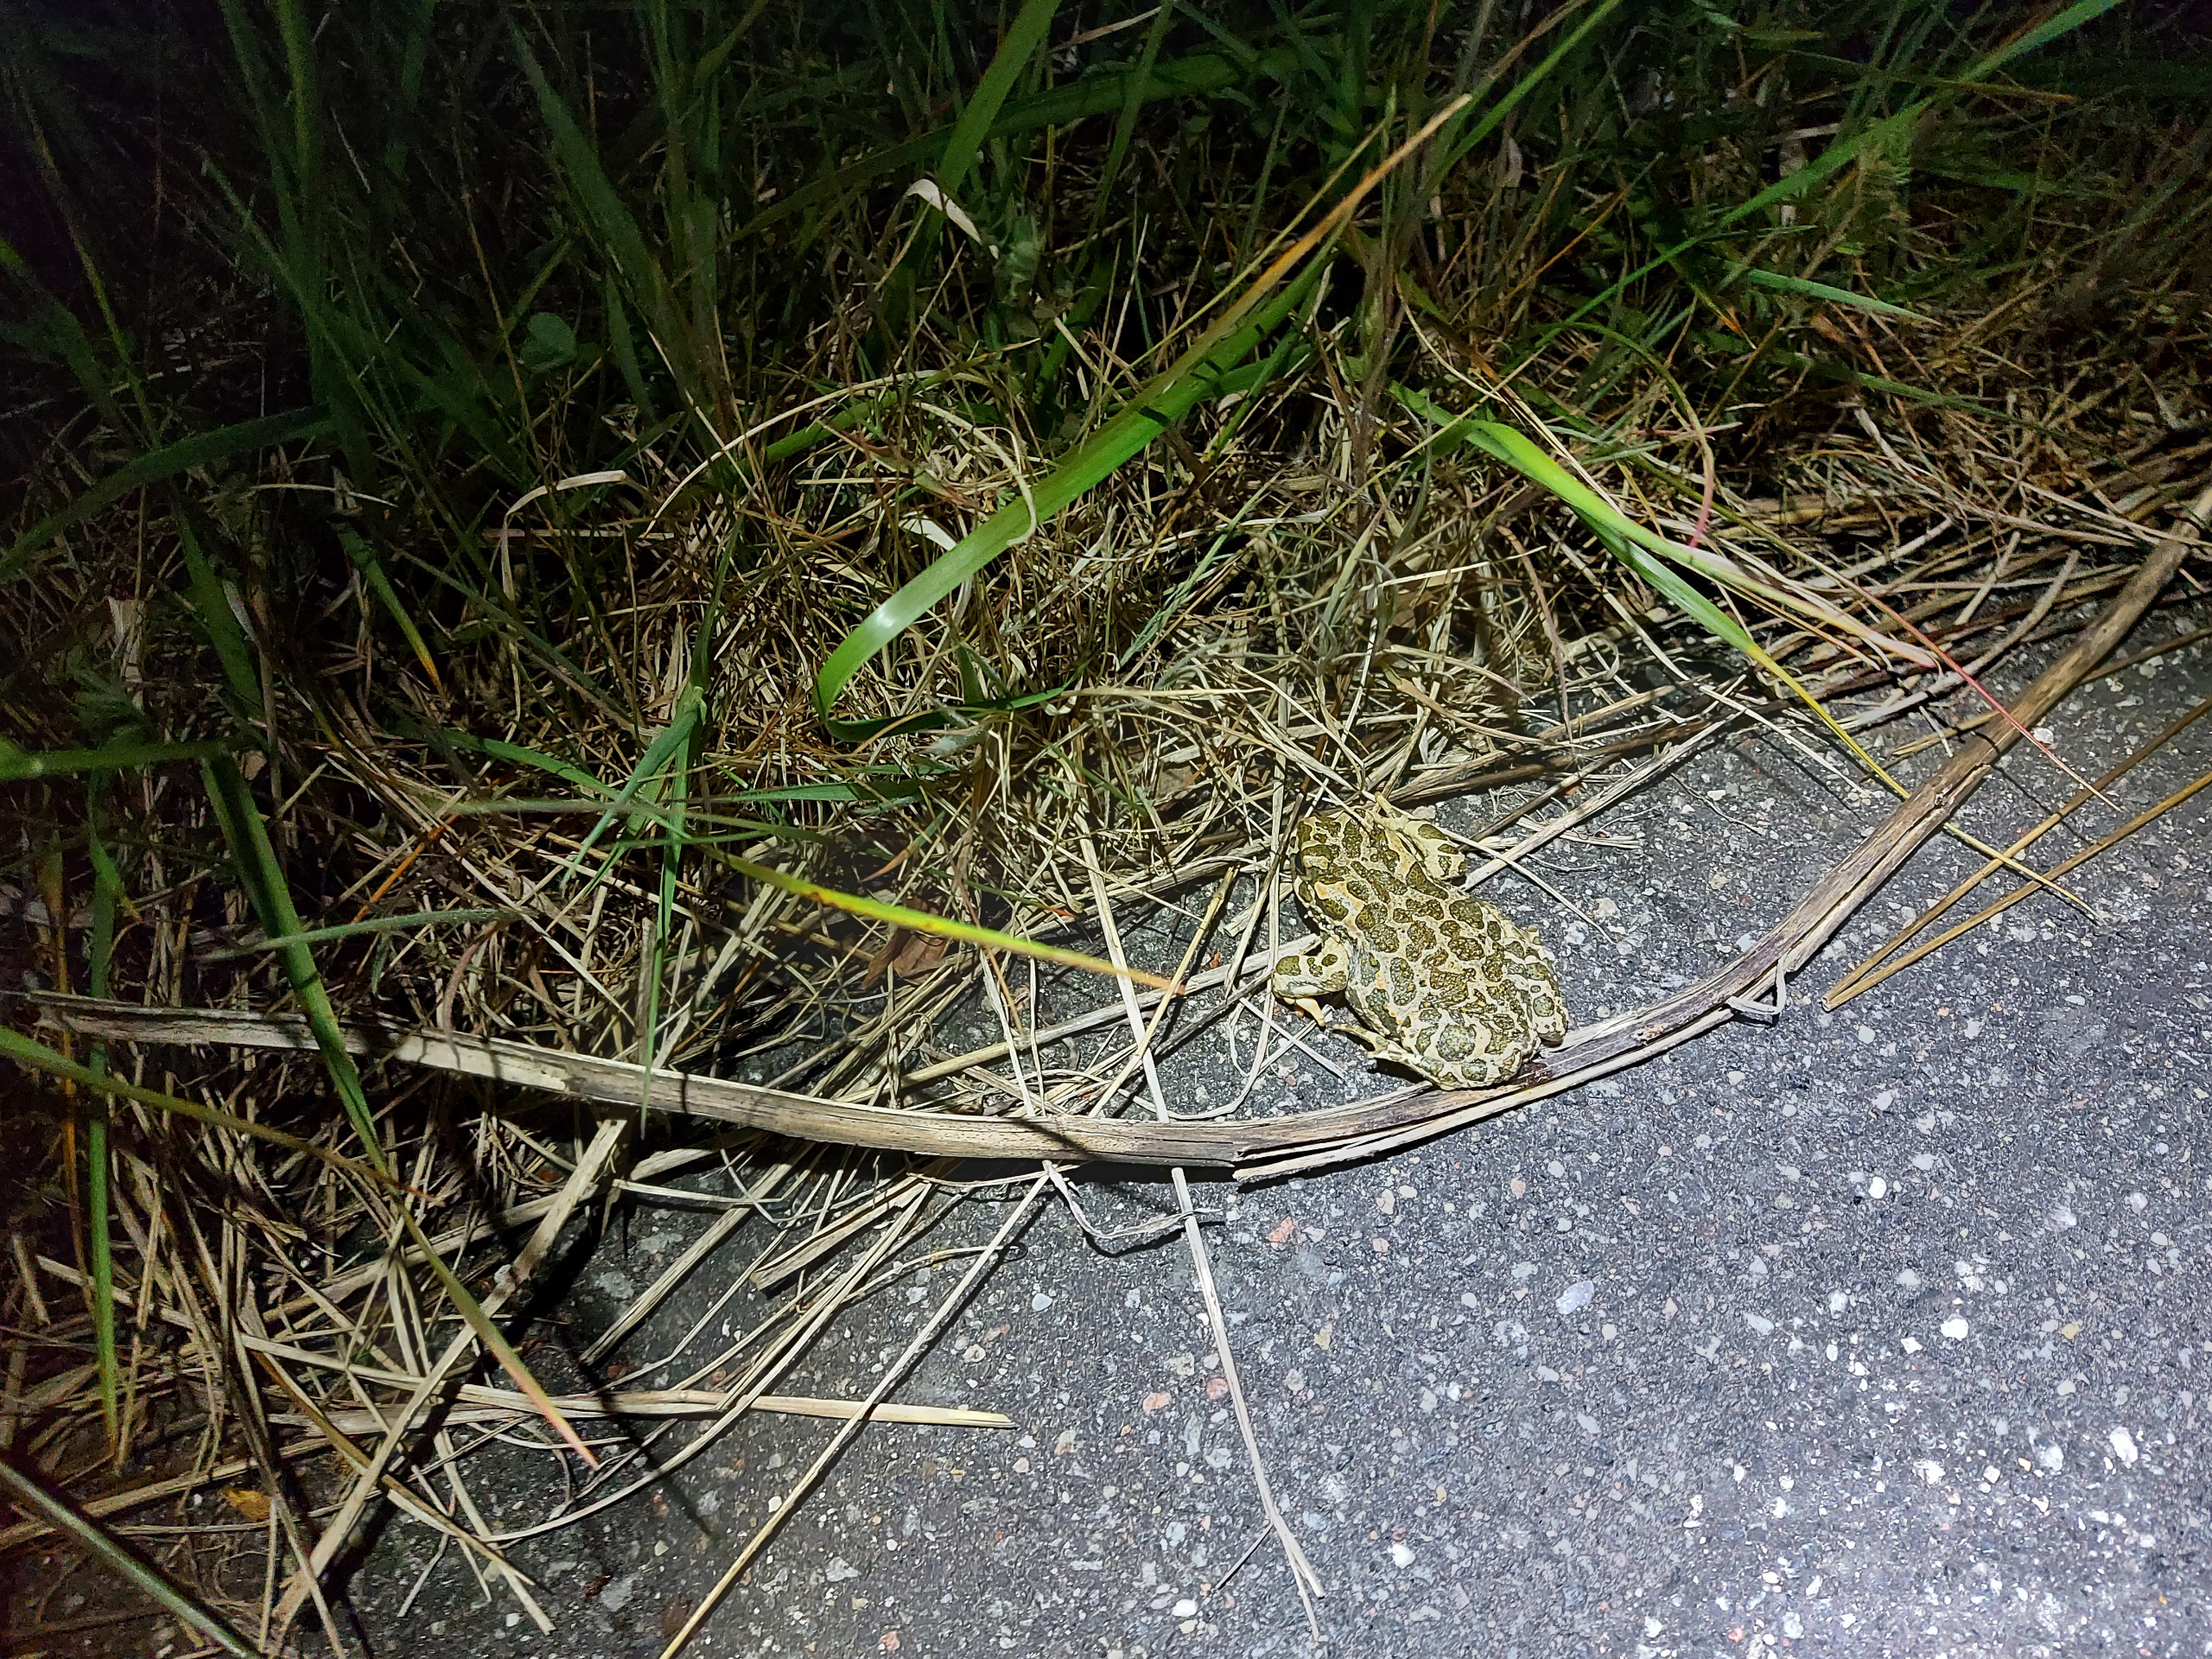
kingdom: Animalia
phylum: Chordata
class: Amphibia
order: Anura
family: Bufonidae
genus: Bufotes
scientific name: Bufotes viridis
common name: Grønbroget tudse
